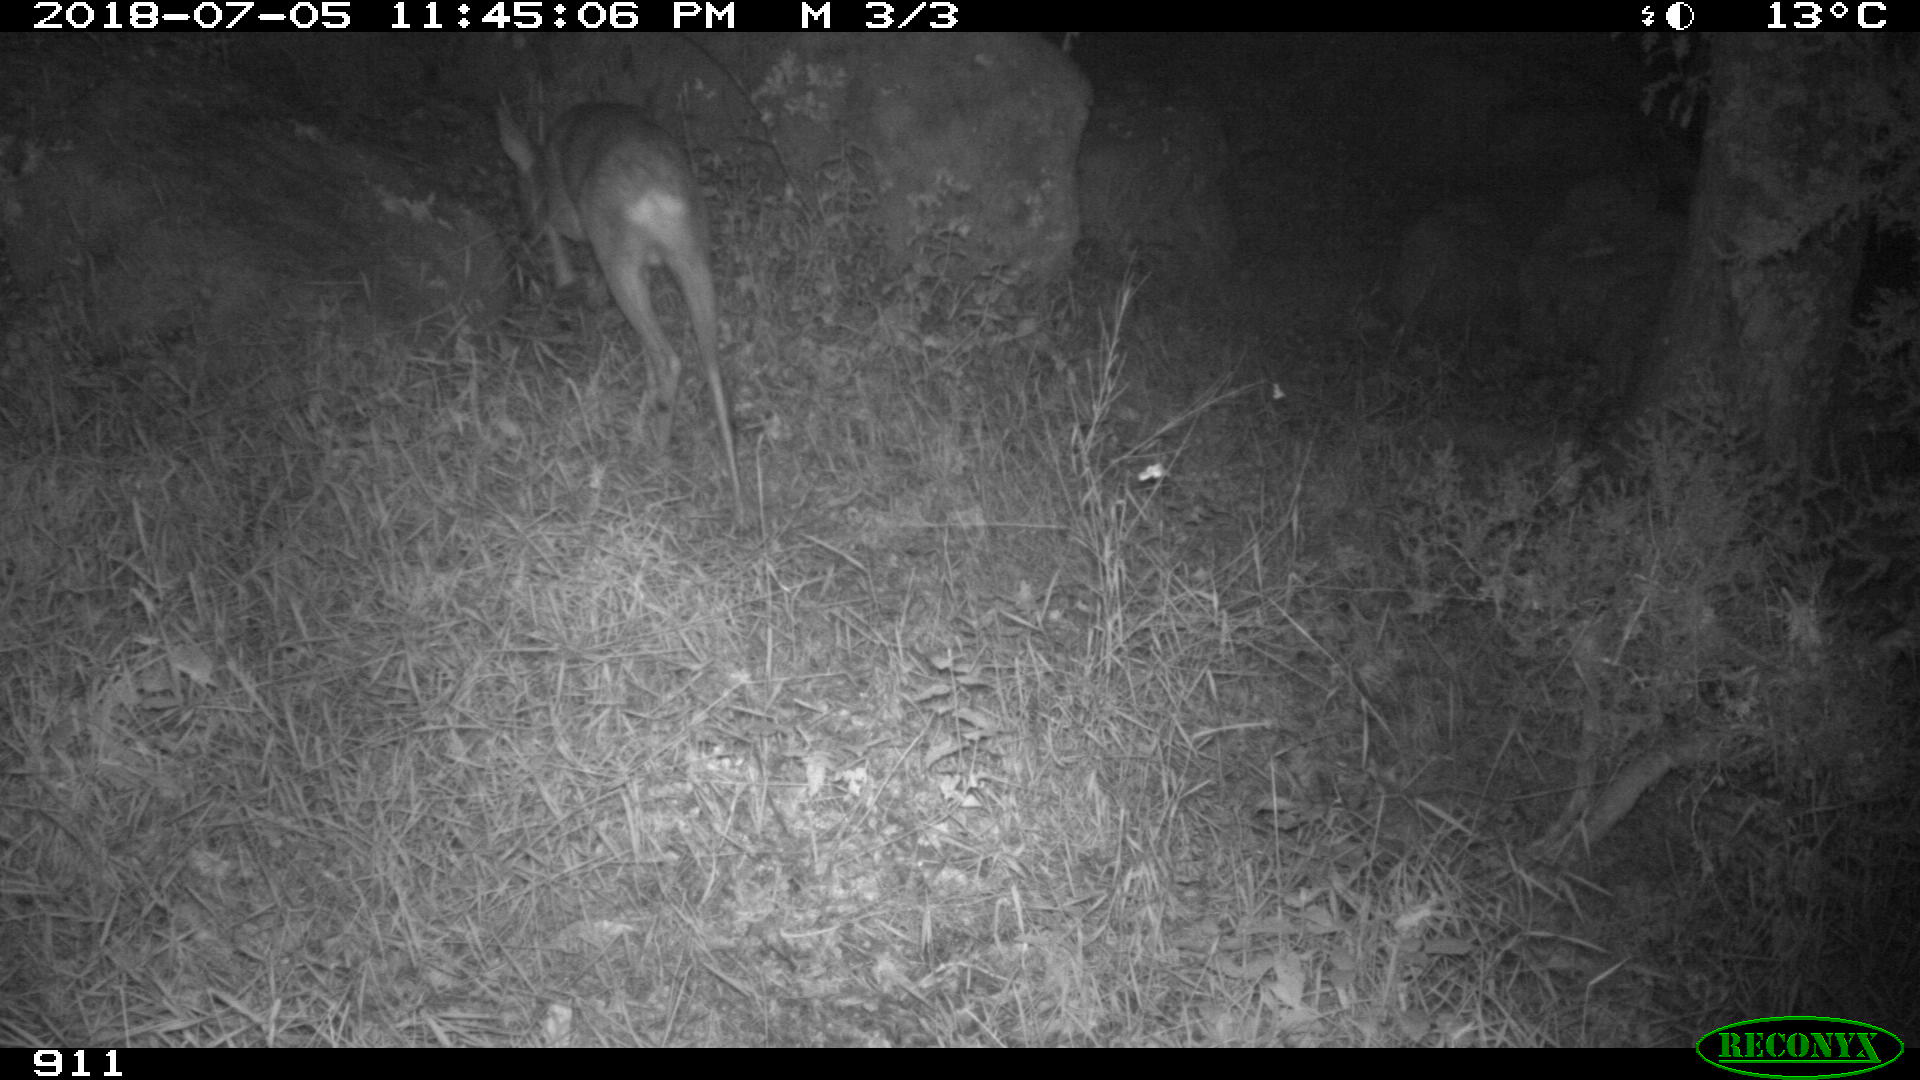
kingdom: Animalia
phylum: Chordata
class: Mammalia
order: Artiodactyla
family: Cervidae
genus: Capreolus
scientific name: Capreolus capreolus
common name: Western roe deer
